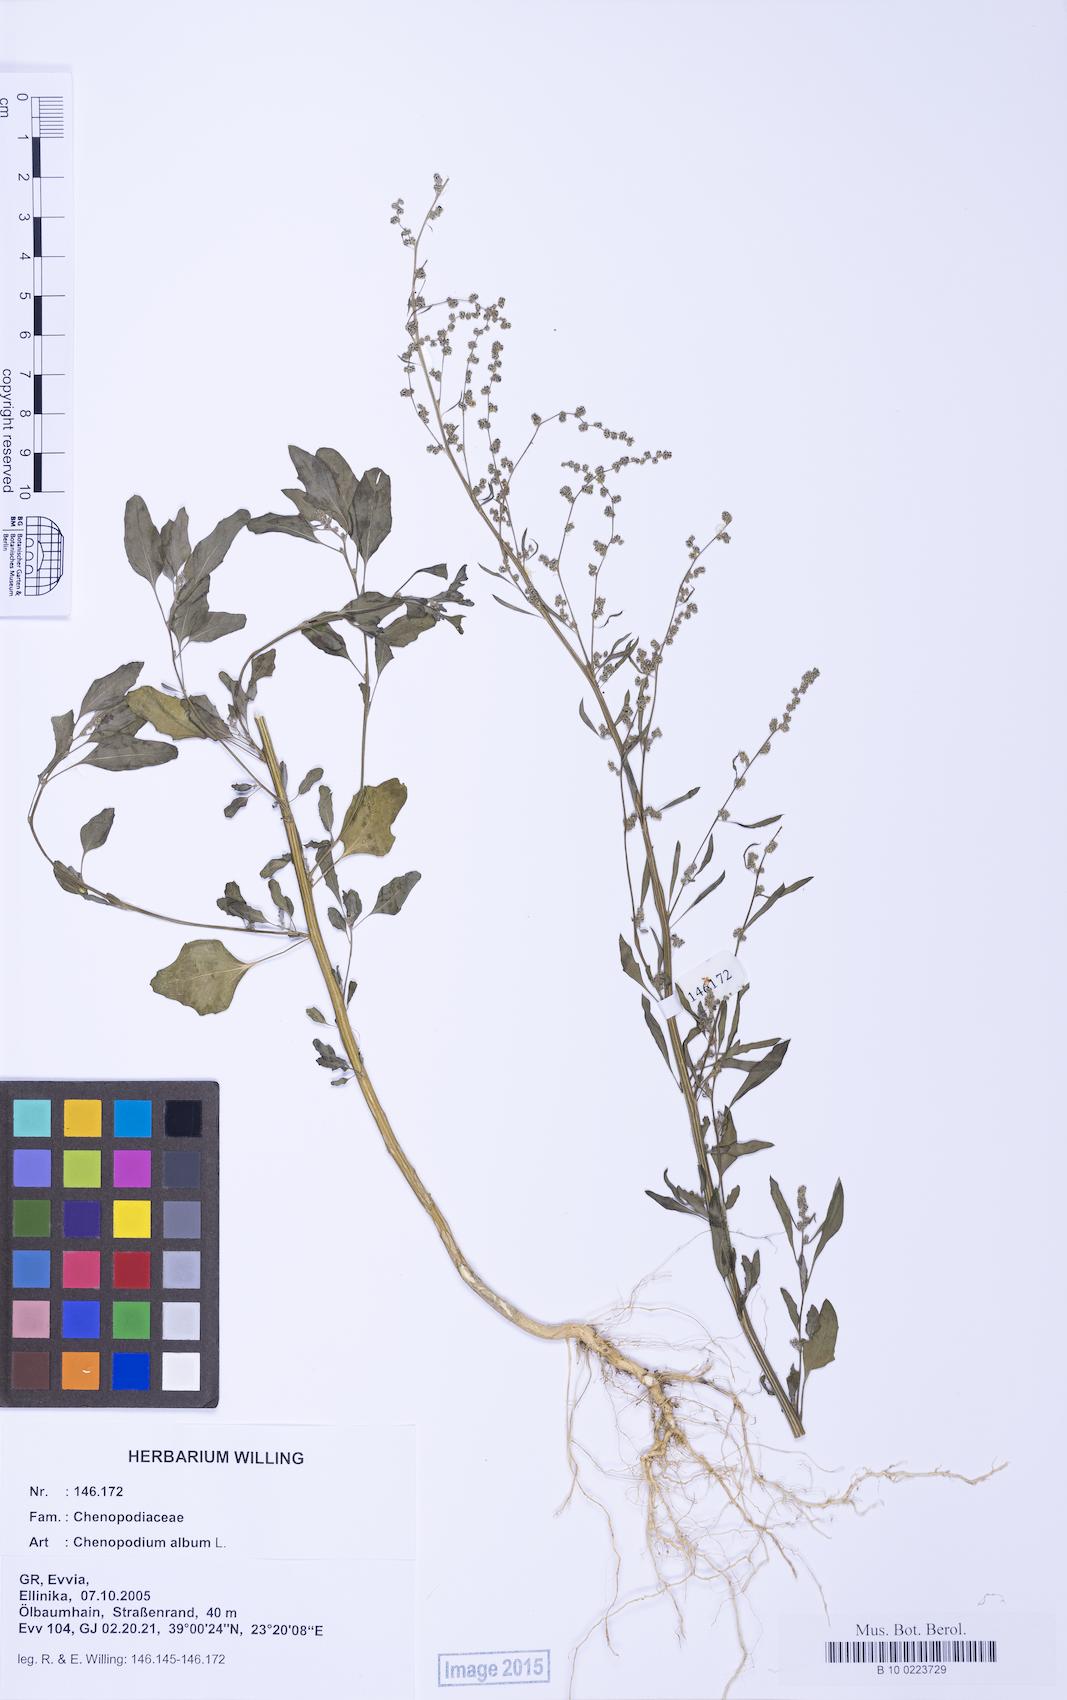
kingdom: Plantae
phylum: Tracheophyta
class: Magnoliopsida
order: Caryophyllales
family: Amaranthaceae
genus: Chenopodium
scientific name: Chenopodium album
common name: Fat-hen
